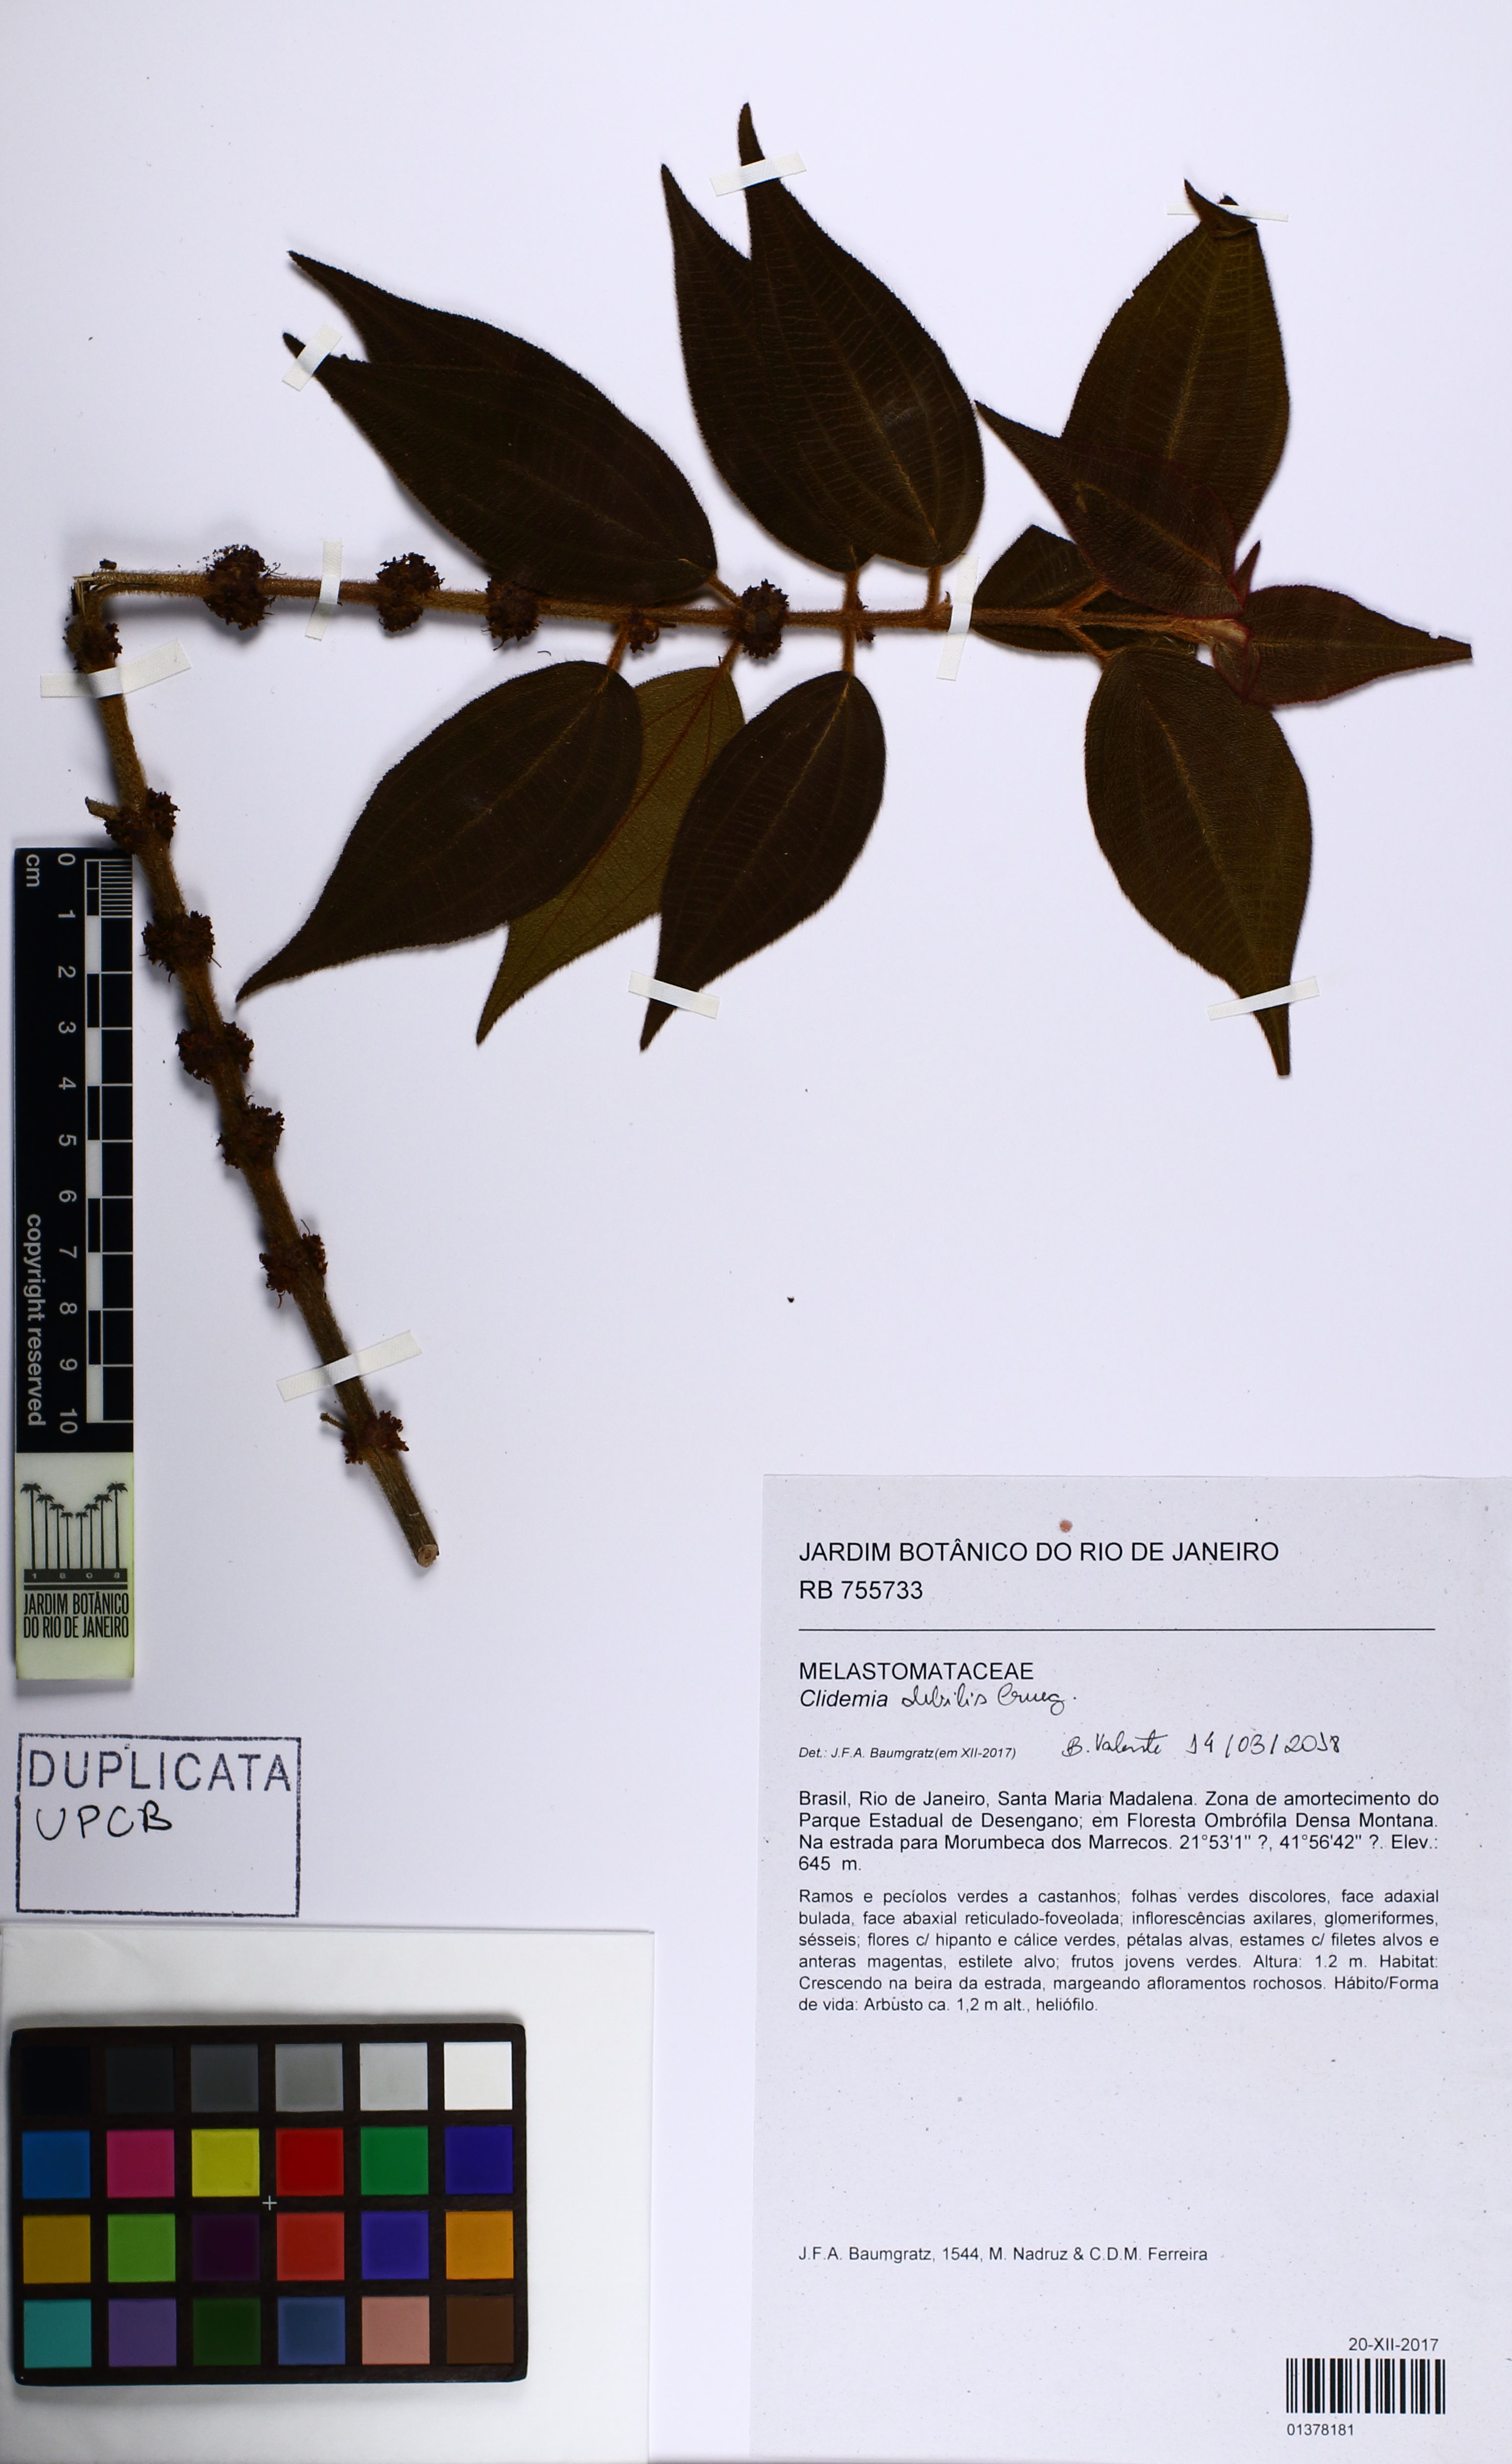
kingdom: Plantae
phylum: Tracheophyta
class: Magnoliopsida
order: Myrtales
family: Melastomataceae
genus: Miconia
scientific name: Miconia debilis
